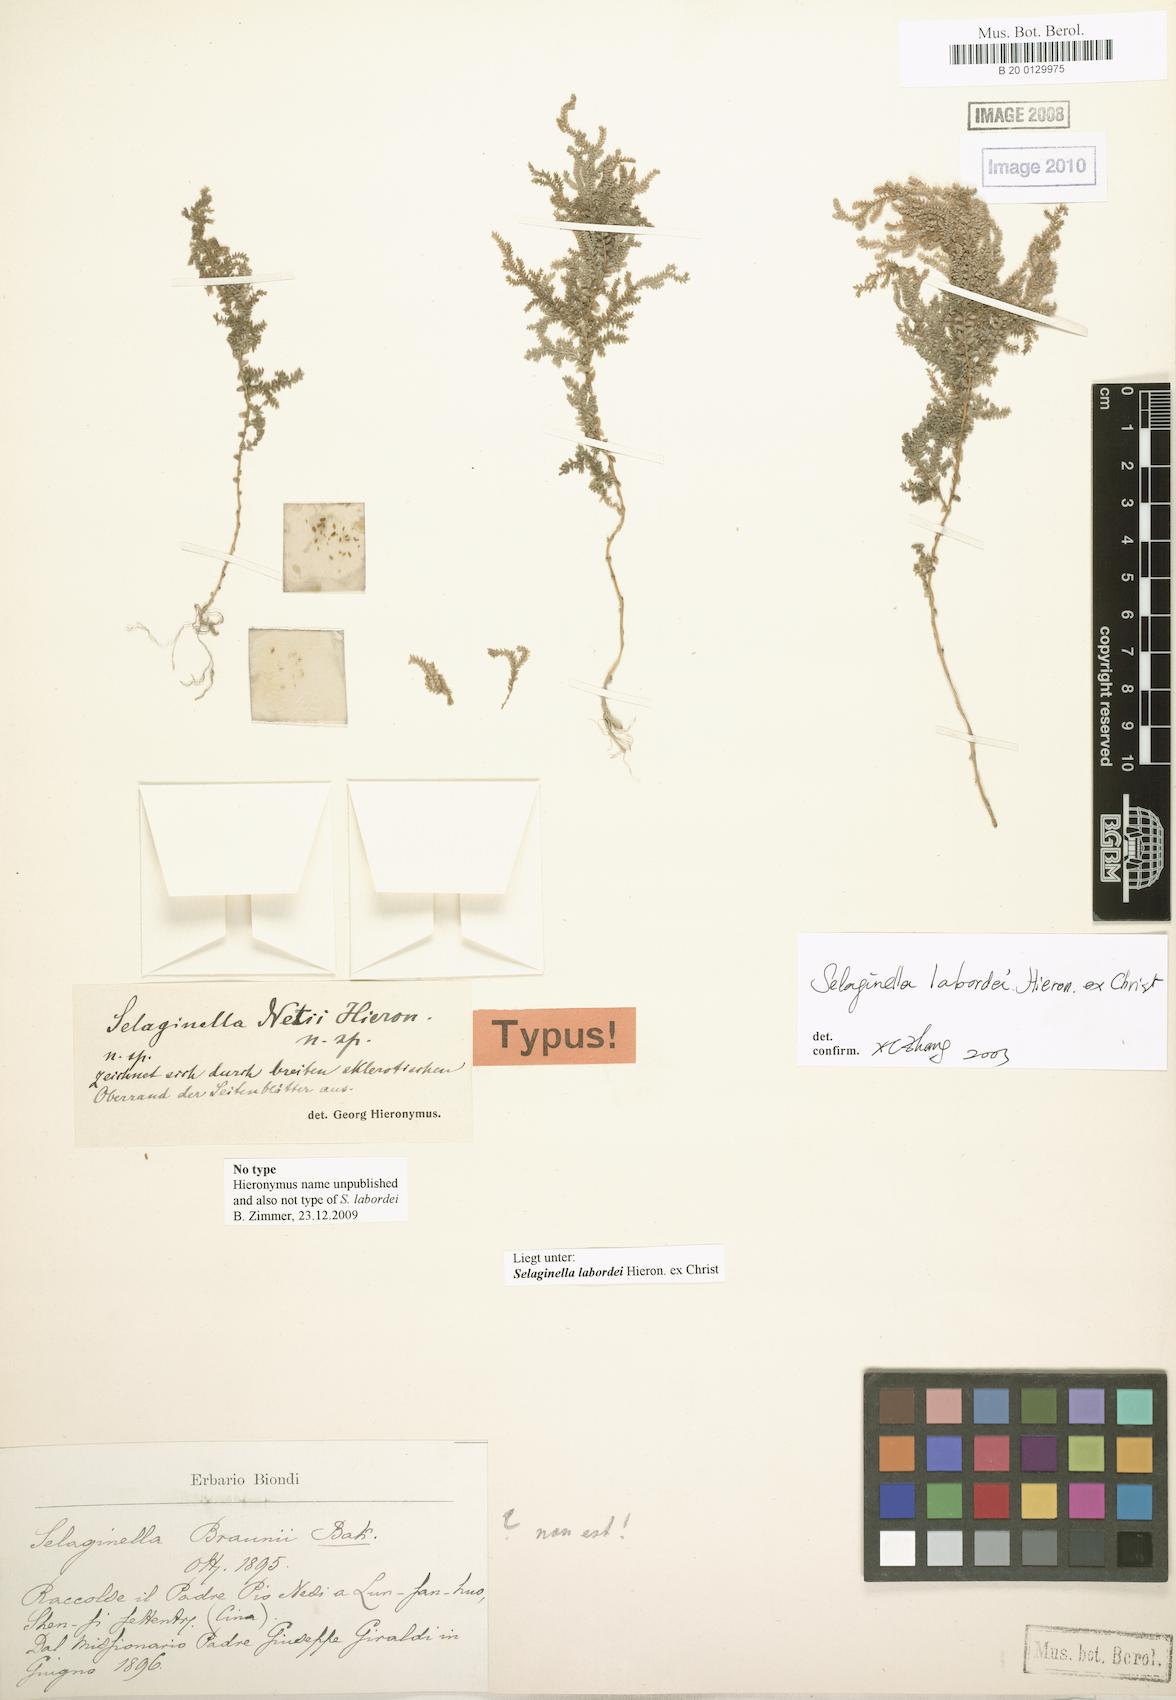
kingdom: Plantae
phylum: Tracheophyta
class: Lycopodiopsida
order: Selaginellales
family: Selaginellaceae
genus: Selaginella
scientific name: Selaginella labordei
